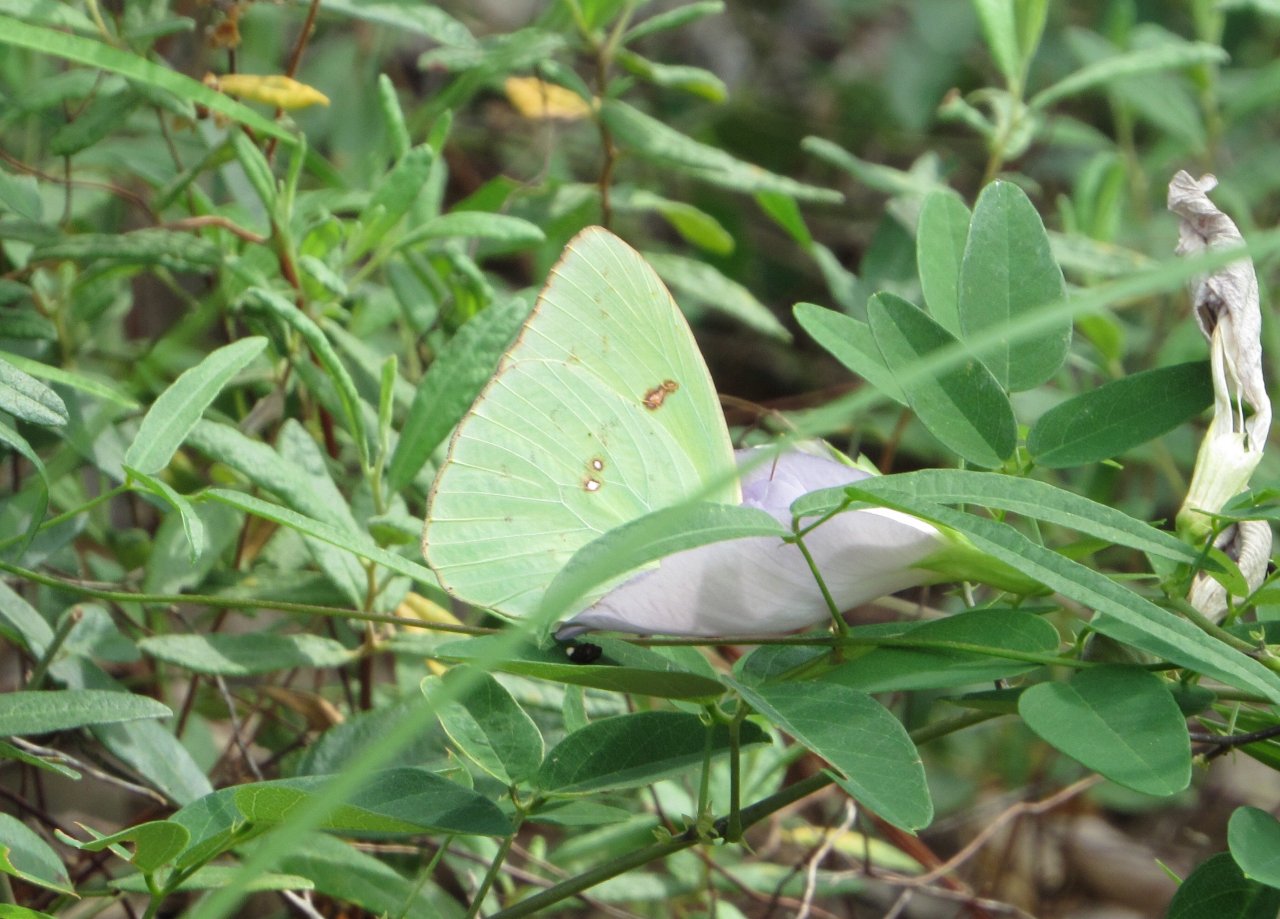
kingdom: Animalia
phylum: Arthropoda
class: Insecta
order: Lepidoptera
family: Pieridae
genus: Phoebis
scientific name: Phoebis sennae
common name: Cloudless Sulphur
